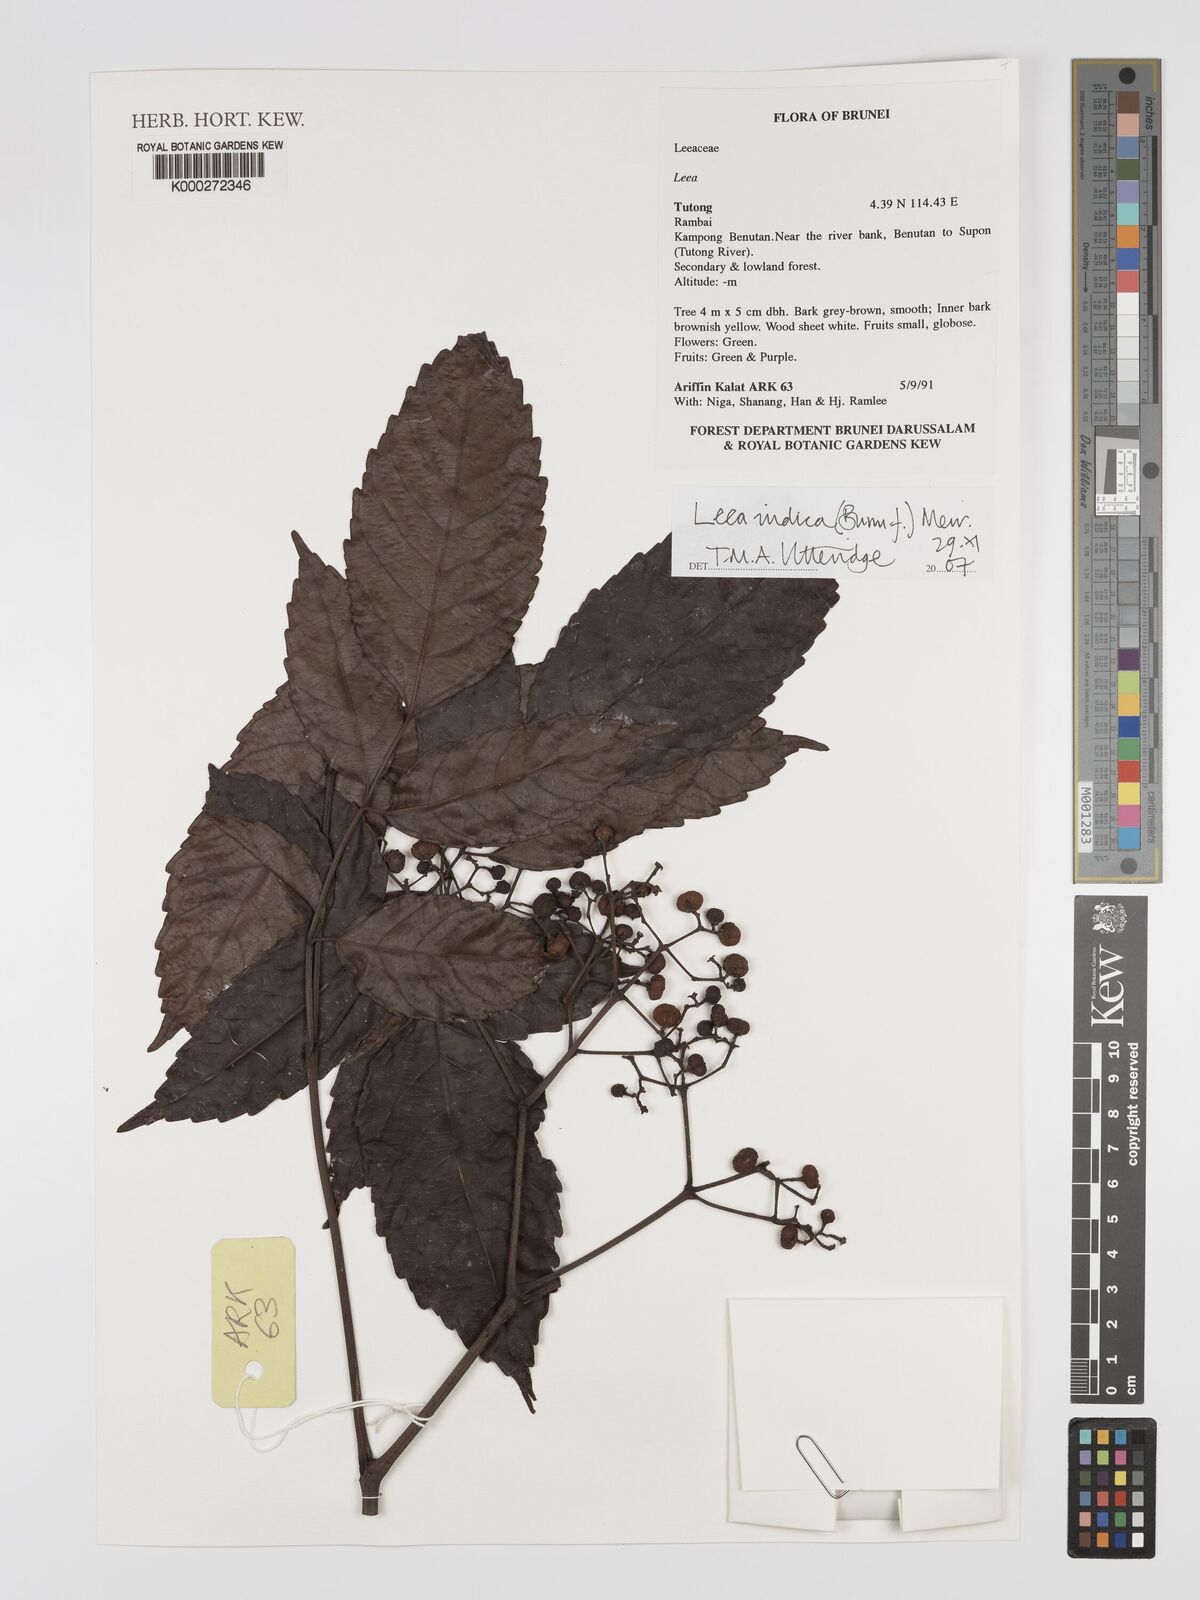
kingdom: Plantae
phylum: Tracheophyta
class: Magnoliopsida
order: Vitales
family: Vitaceae
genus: Leea
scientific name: Leea indica
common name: Bandicoot-berry
